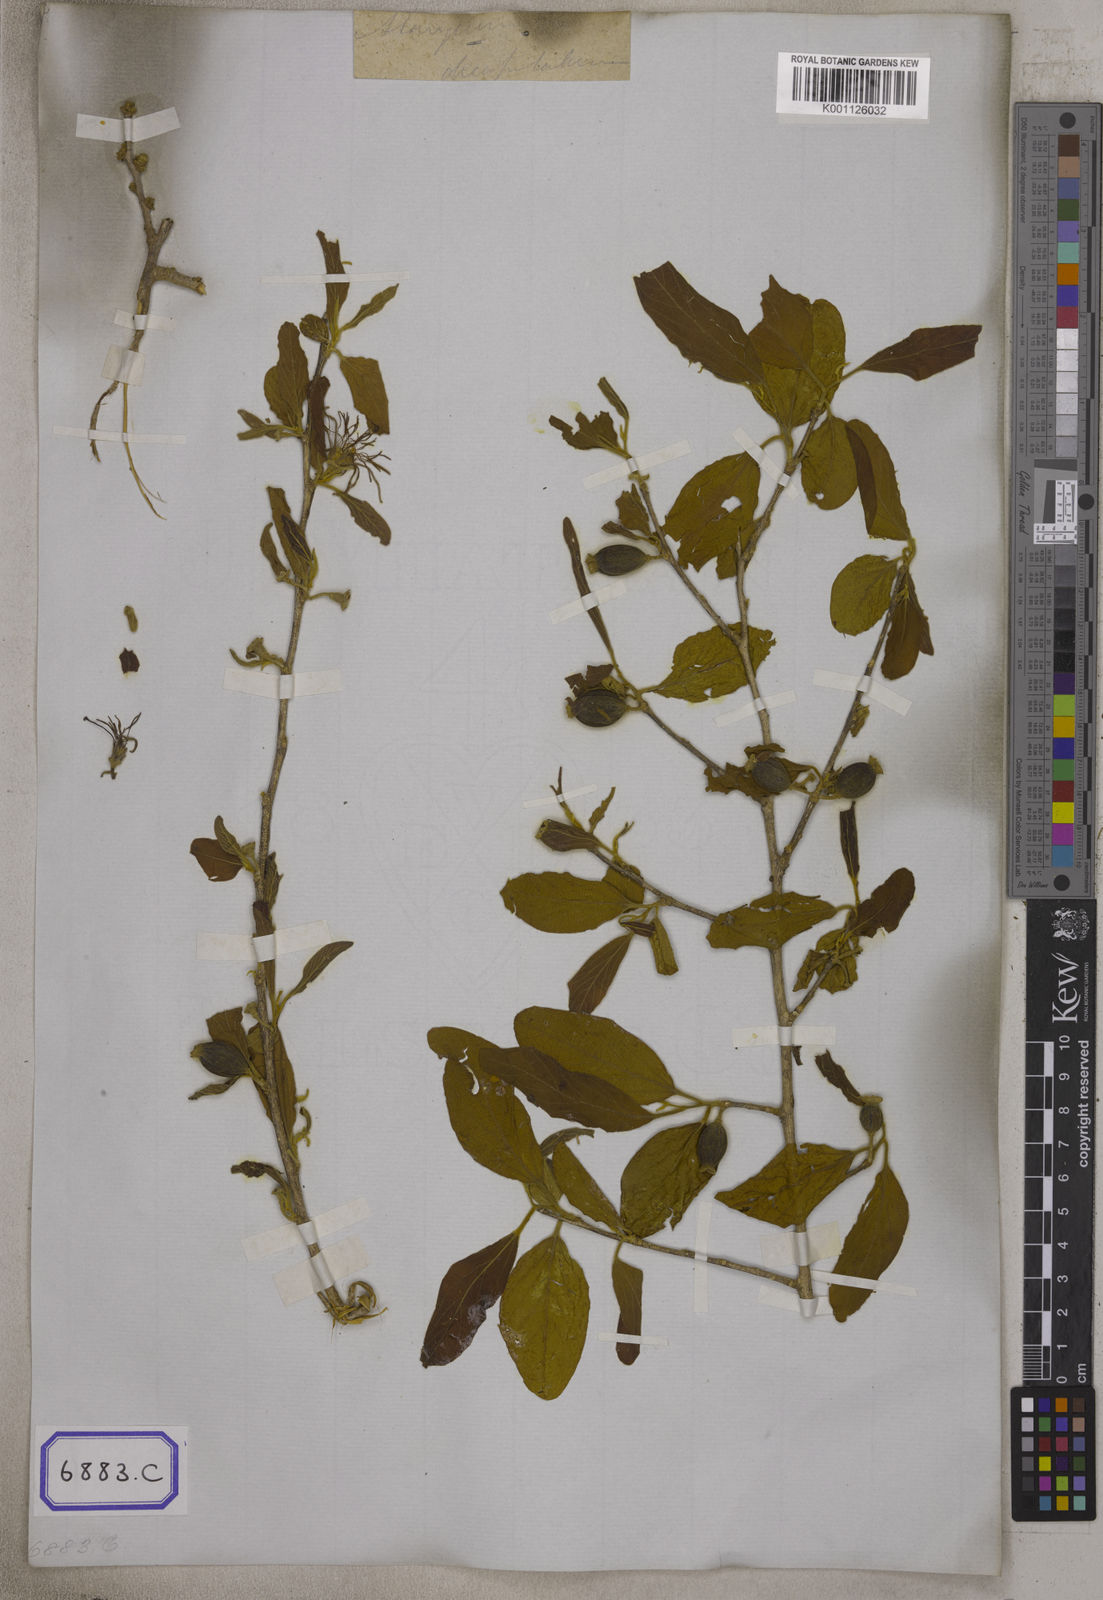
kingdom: Plantae
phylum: Tracheophyta
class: Magnoliopsida
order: Cornales
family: Cornaceae
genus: Alangium
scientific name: Alangium salviifolium
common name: Sage-leaf alangium
